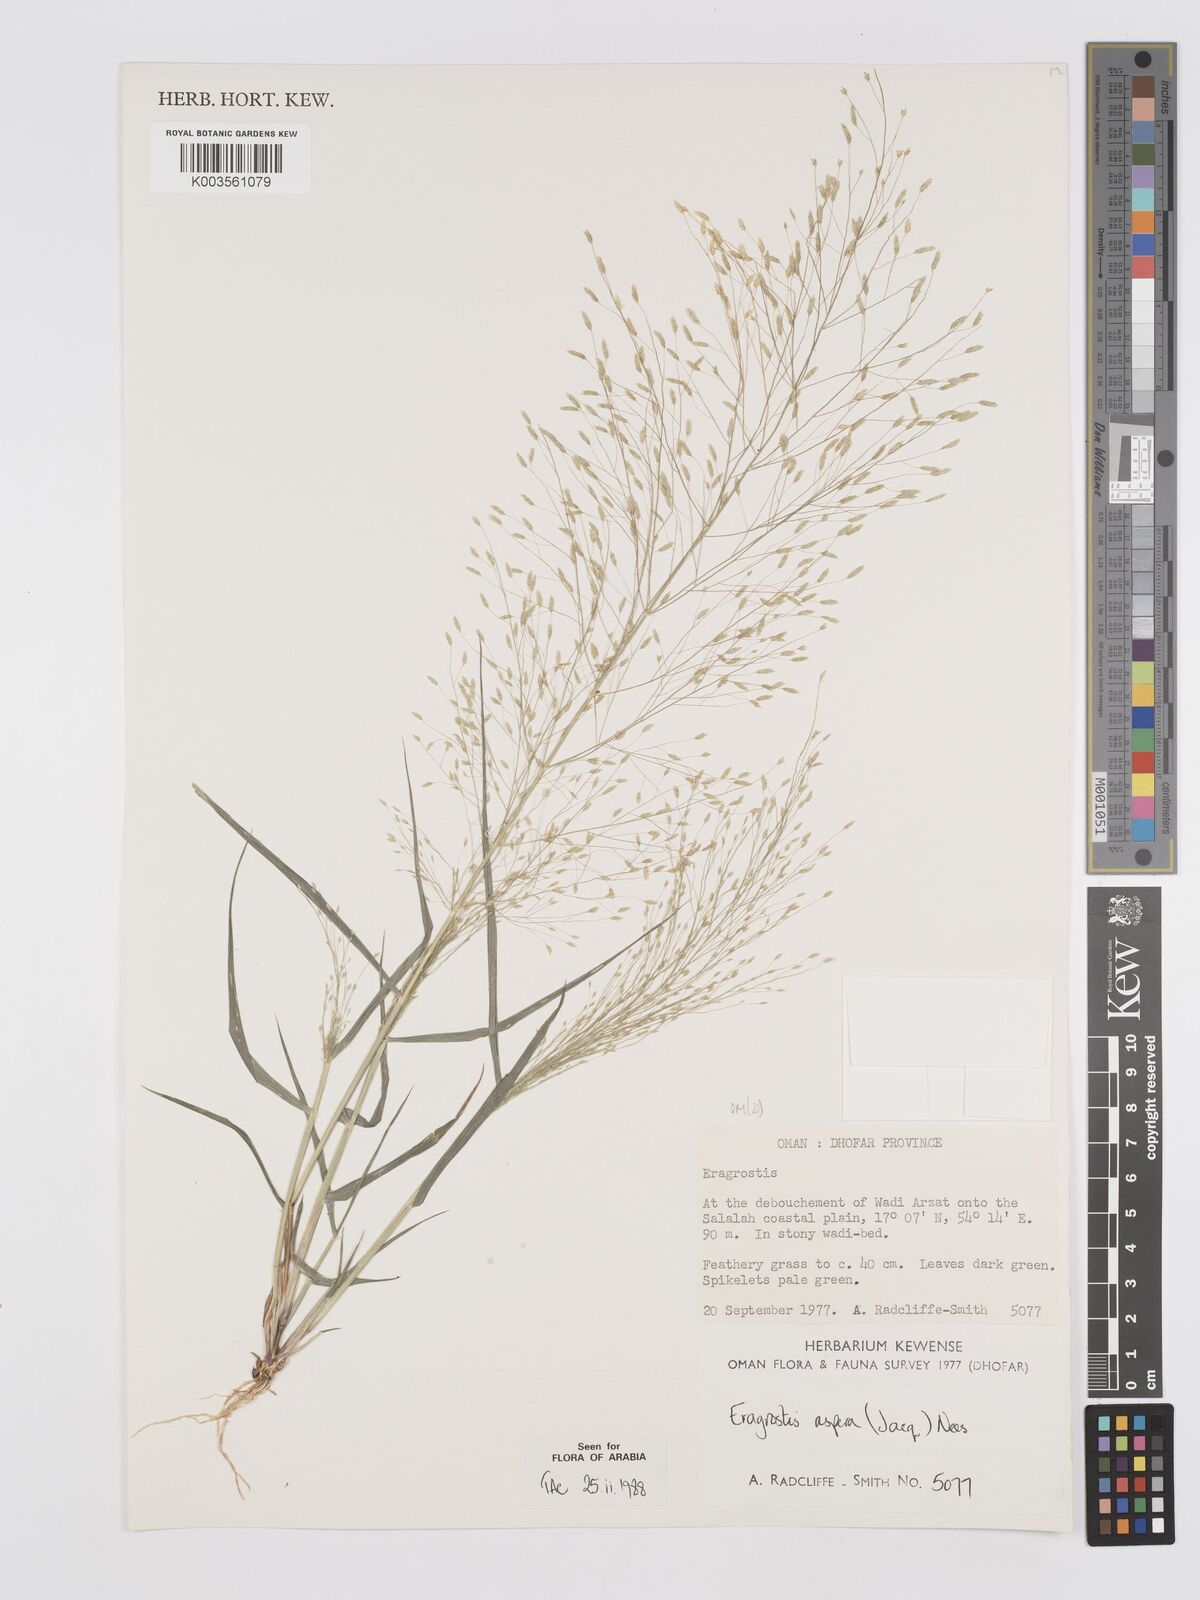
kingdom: Plantae
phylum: Tracheophyta
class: Liliopsida
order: Poales
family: Poaceae
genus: Eragrostis
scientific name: Eragrostis aspera
